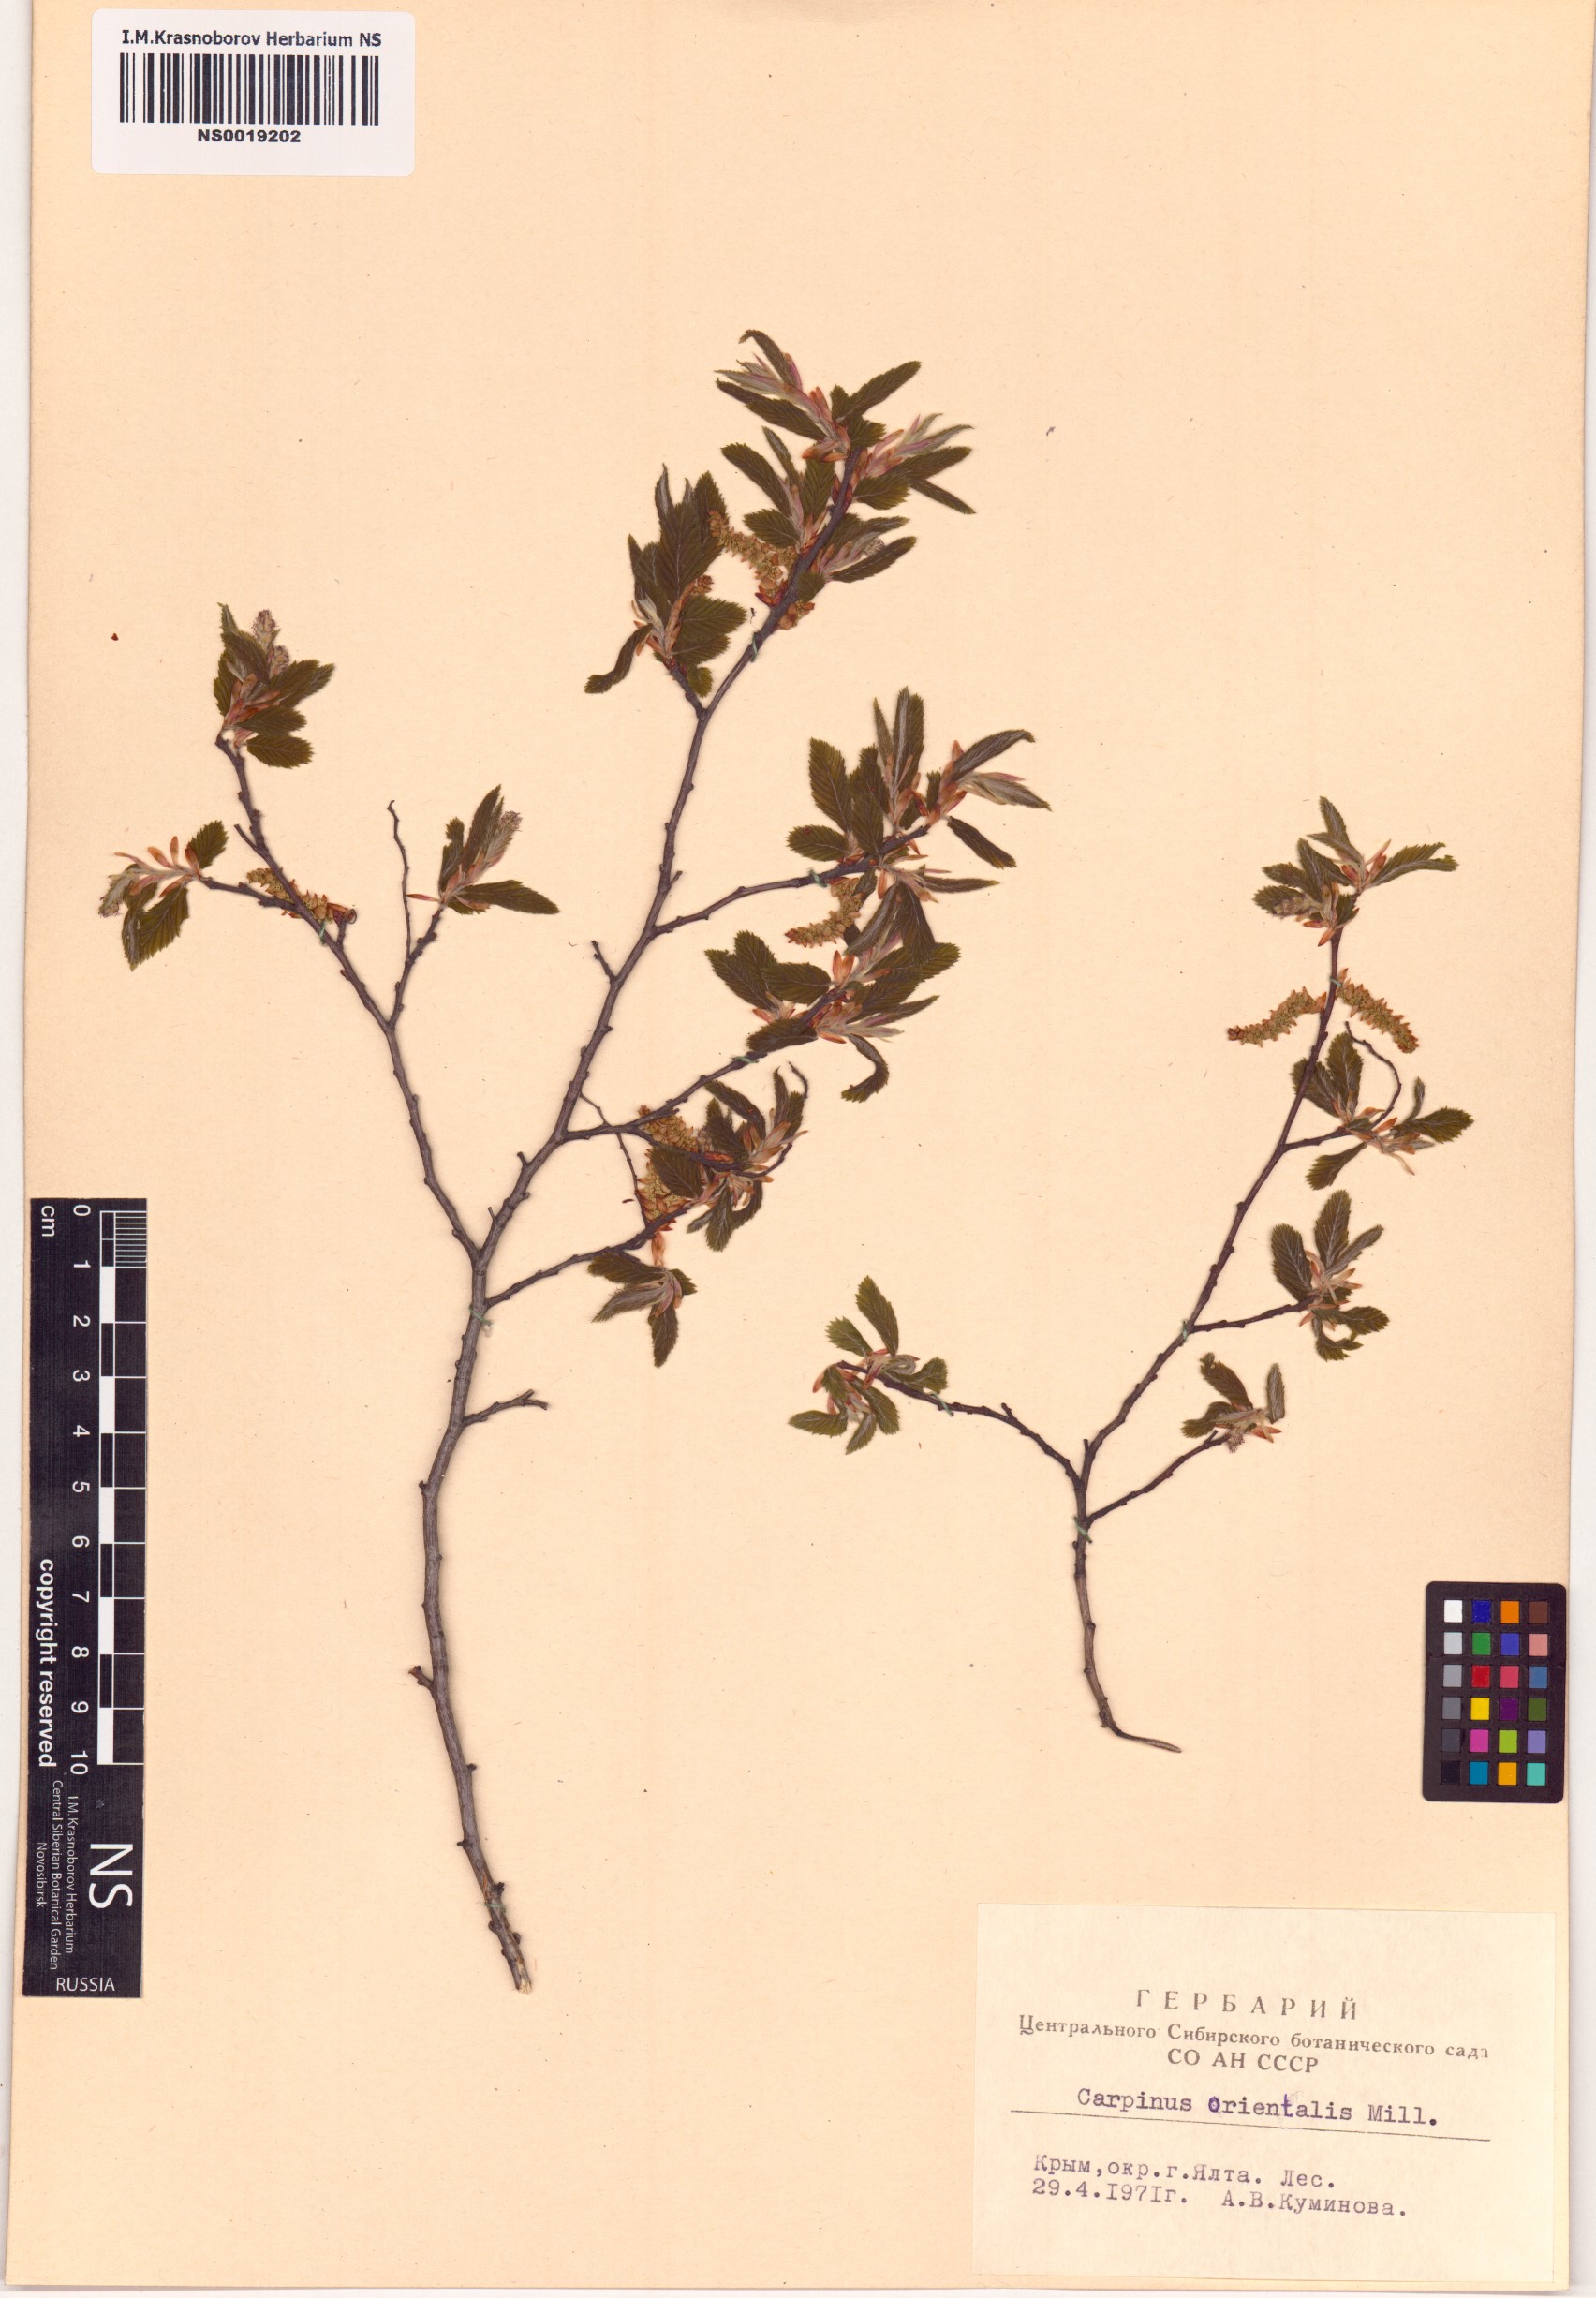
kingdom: Plantae
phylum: Tracheophyta
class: Magnoliopsida
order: Fagales
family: Betulaceae
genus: Carpinus
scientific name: Carpinus orientalis
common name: Eastern hornbeam
